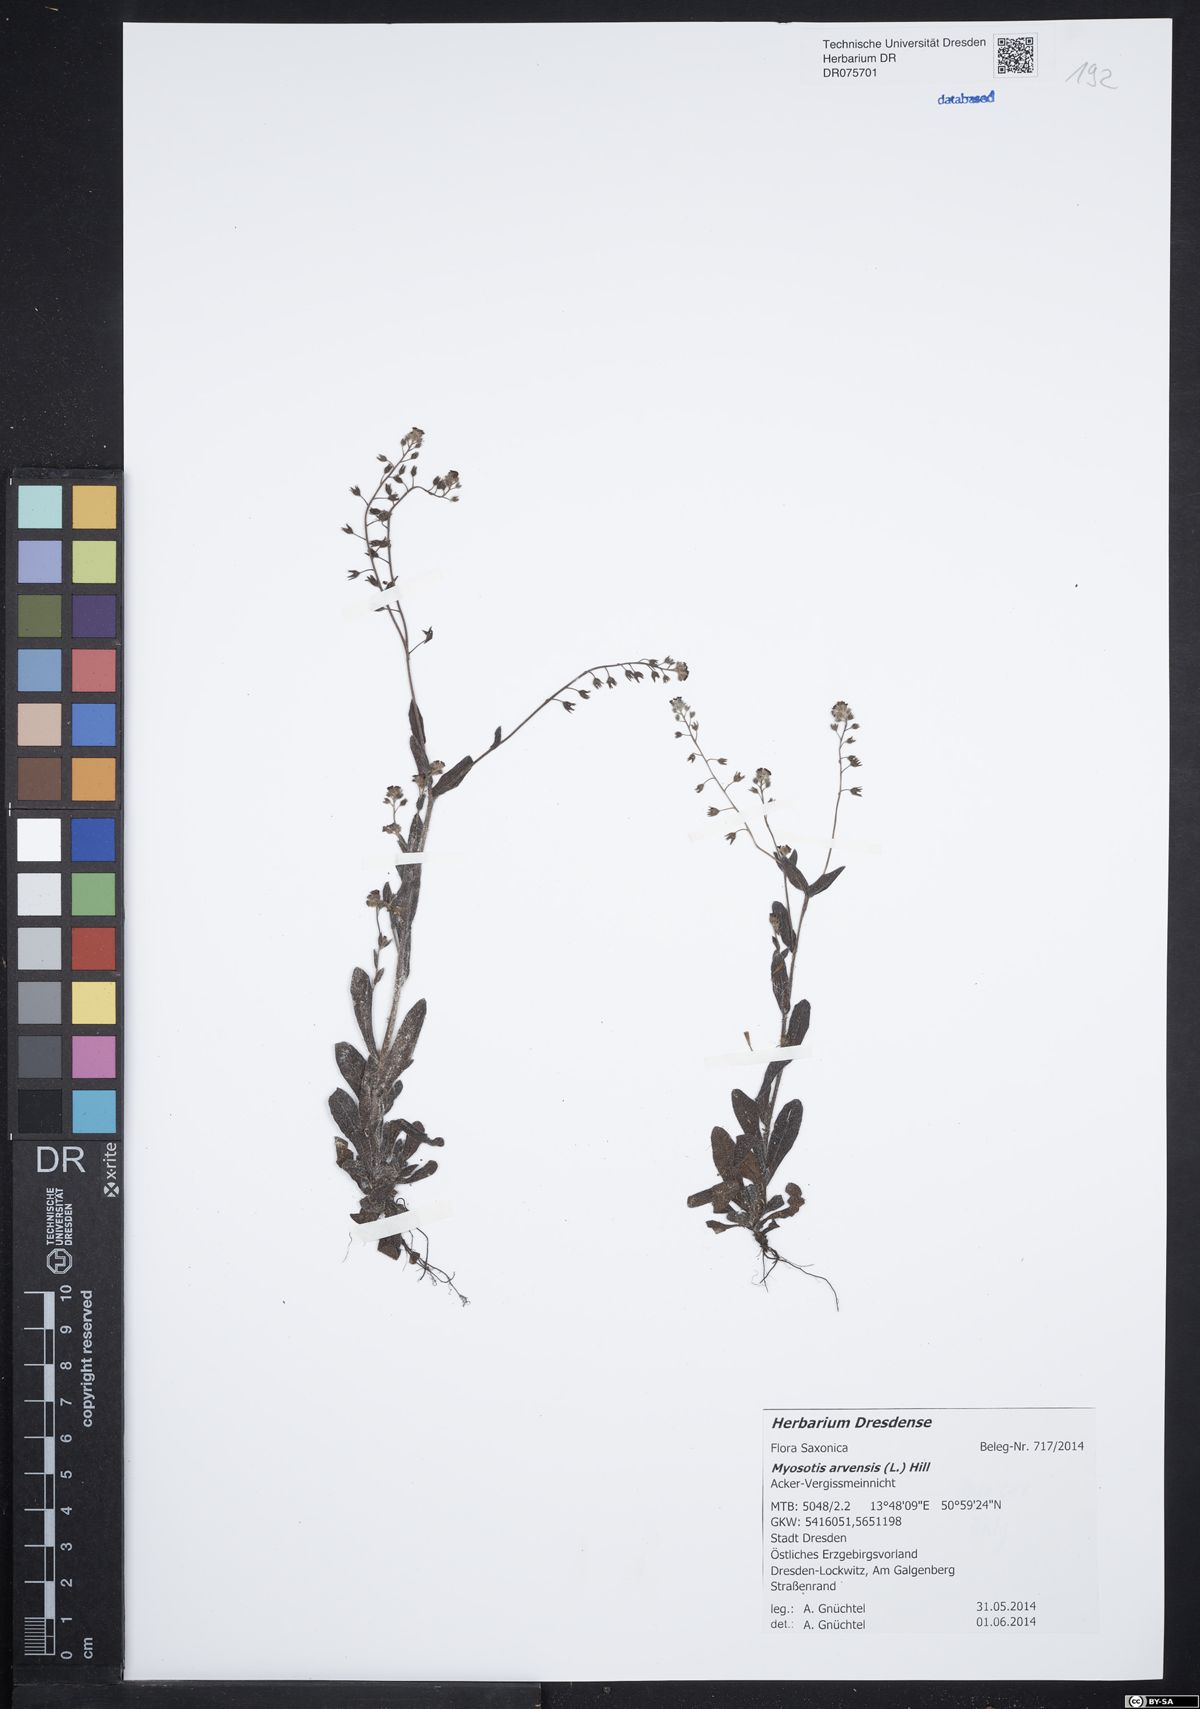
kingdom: Plantae
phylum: Tracheophyta
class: Magnoliopsida
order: Boraginales
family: Boraginaceae
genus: Myosotis
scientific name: Myosotis arvensis
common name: Field forget-me-not
